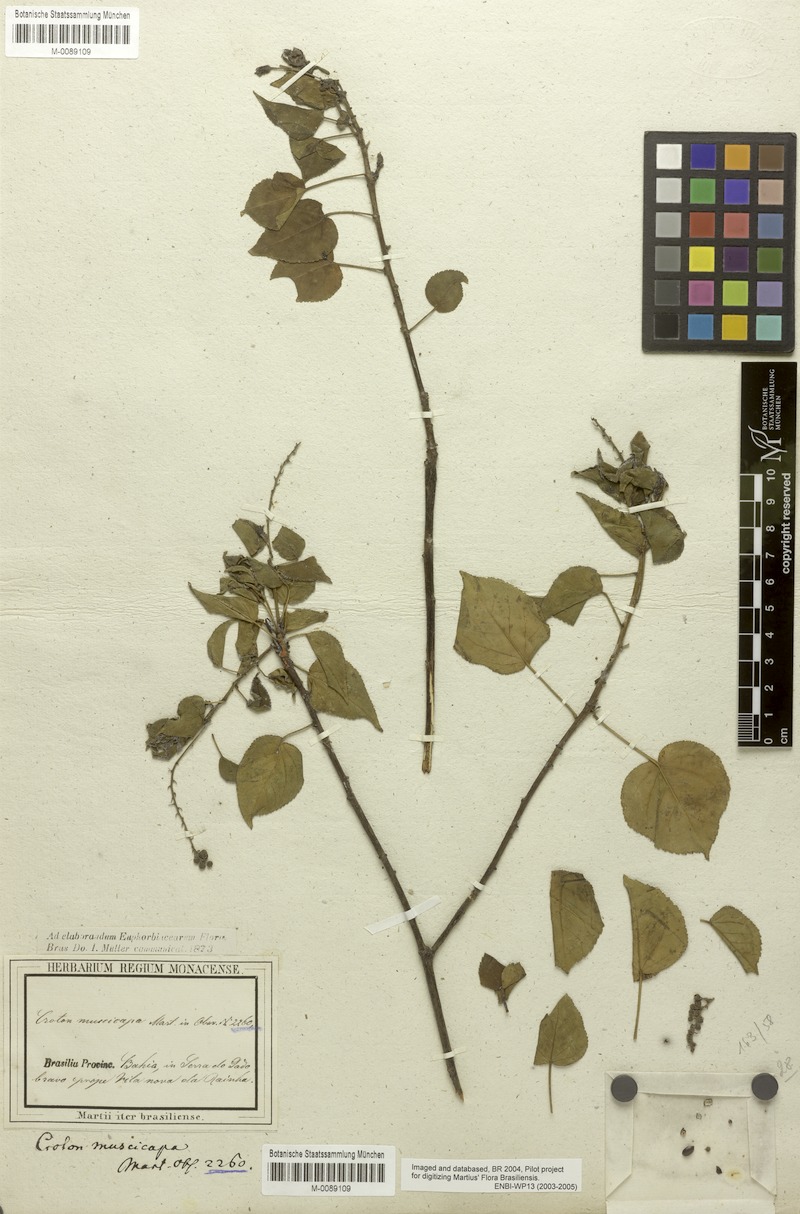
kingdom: Plantae
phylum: Tracheophyta
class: Magnoliopsida
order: Malpighiales
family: Euphorbiaceae
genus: Croton
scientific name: Croton muscicapa
